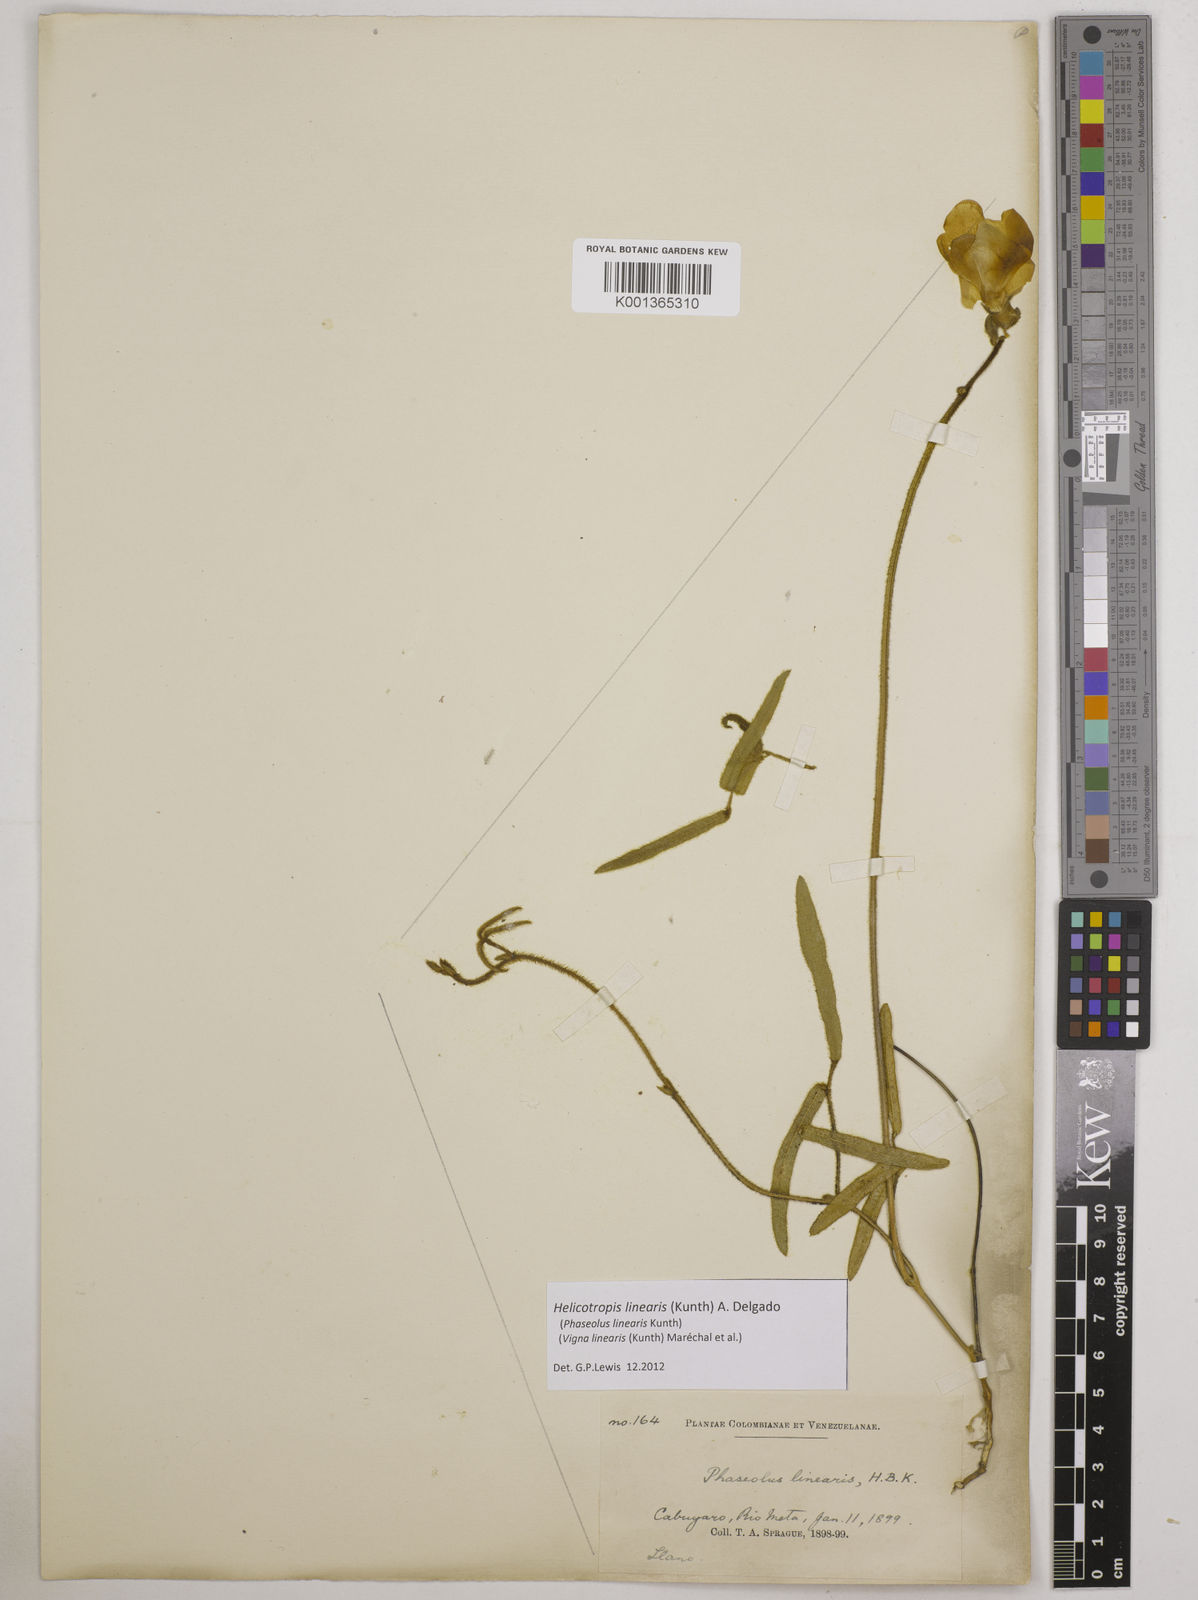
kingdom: Plantae
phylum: Tracheophyta
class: Magnoliopsida
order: Fabales
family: Fabaceae
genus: Helicotropis
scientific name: Helicotropis linearis
